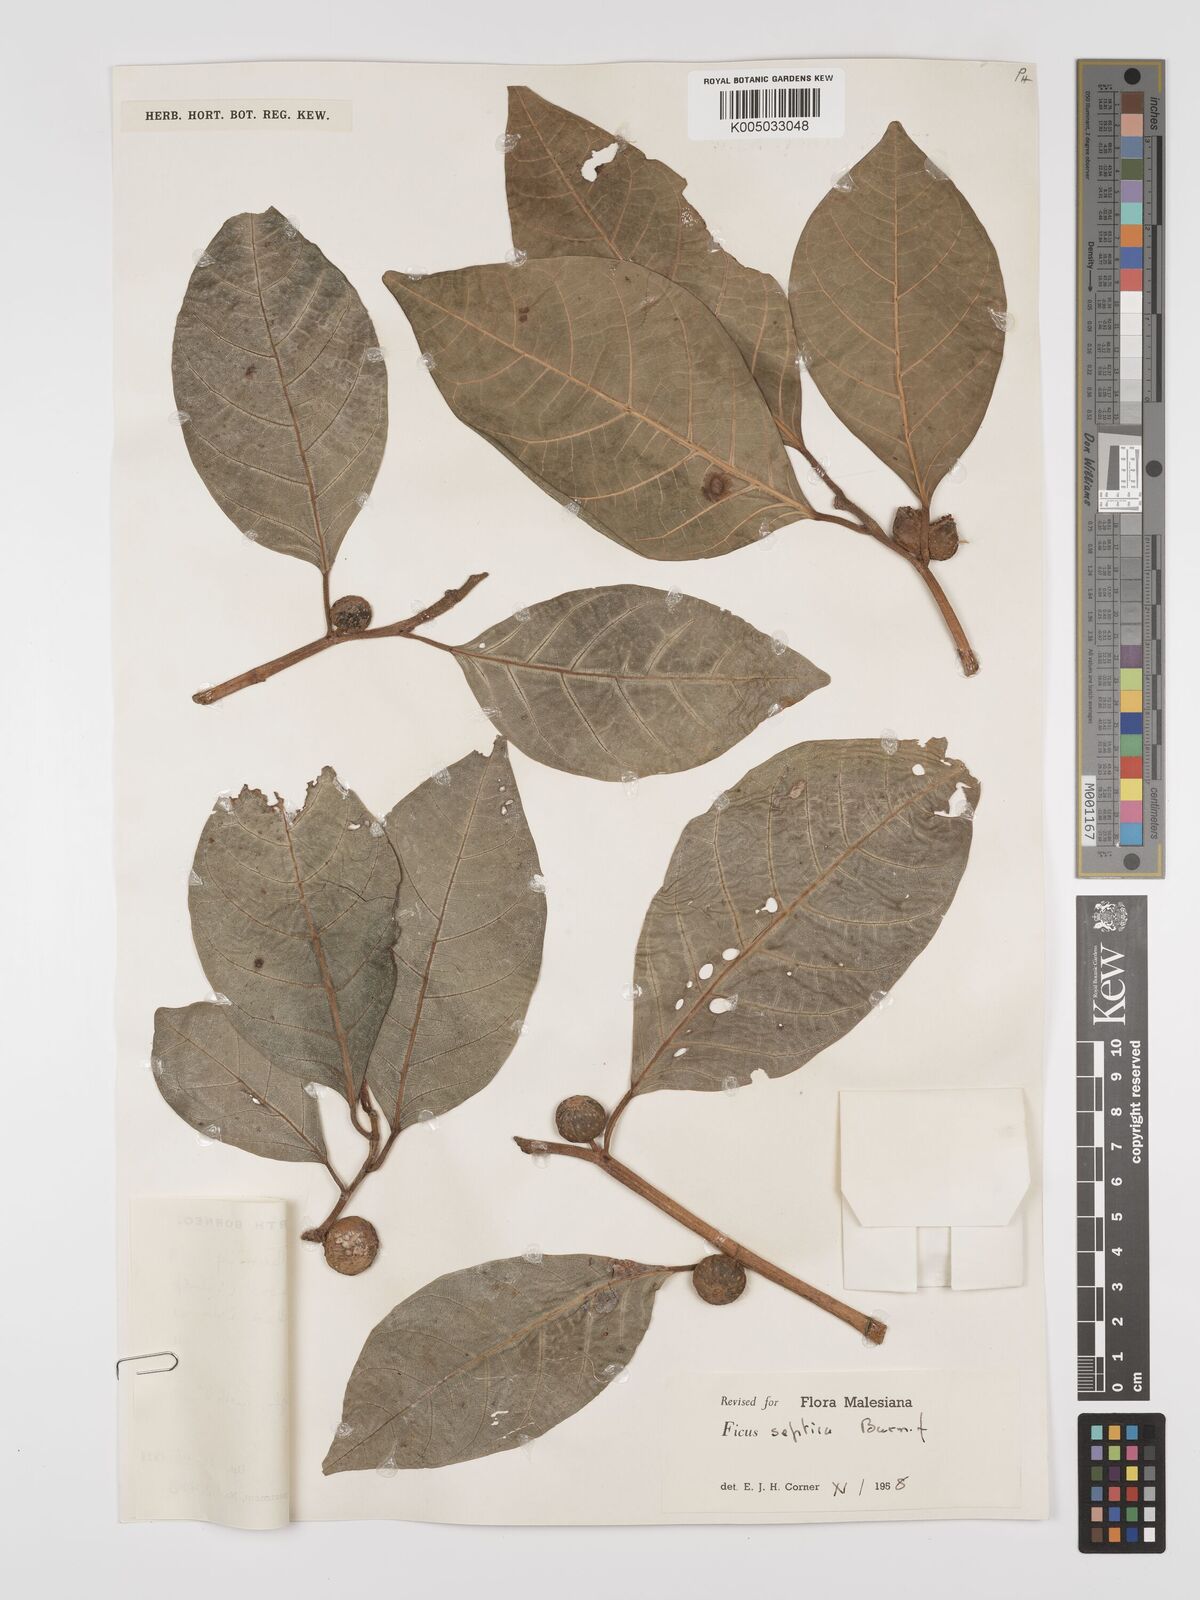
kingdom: Plantae
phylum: Tracheophyta
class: Magnoliopsida
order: Rosales
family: Moraceae
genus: Ficus
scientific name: Ficus septica
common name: Septic fig
